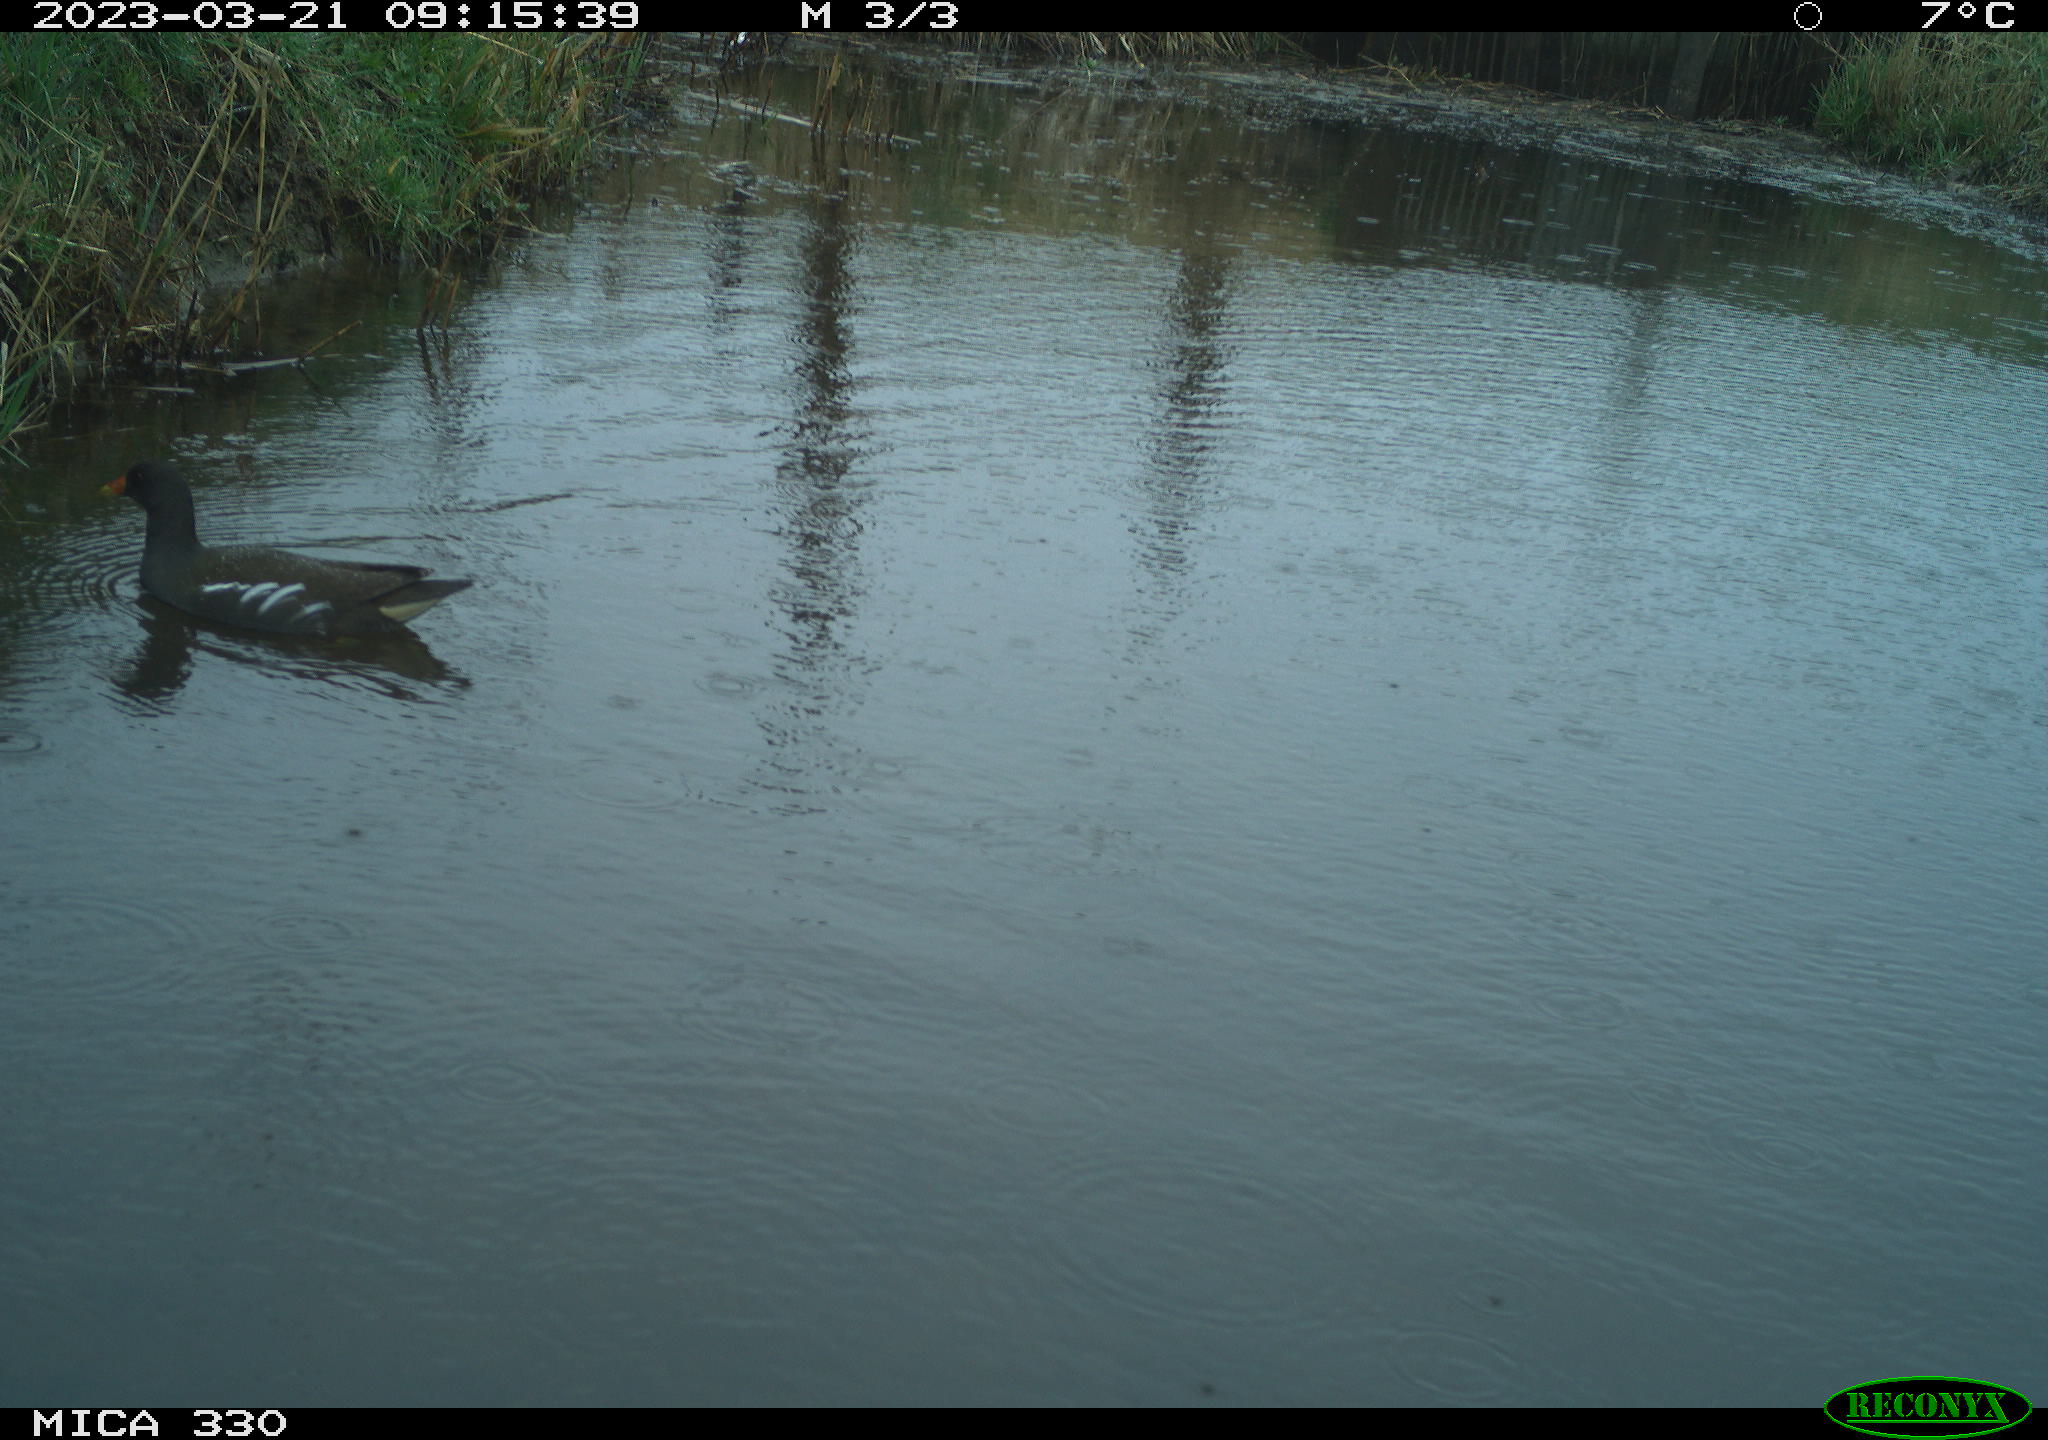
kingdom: Animalia
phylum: Chordata
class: Aves
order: Gruiformes
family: Rallidae
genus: Gallinula
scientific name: Gallinula chloropus
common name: Common moorhen
